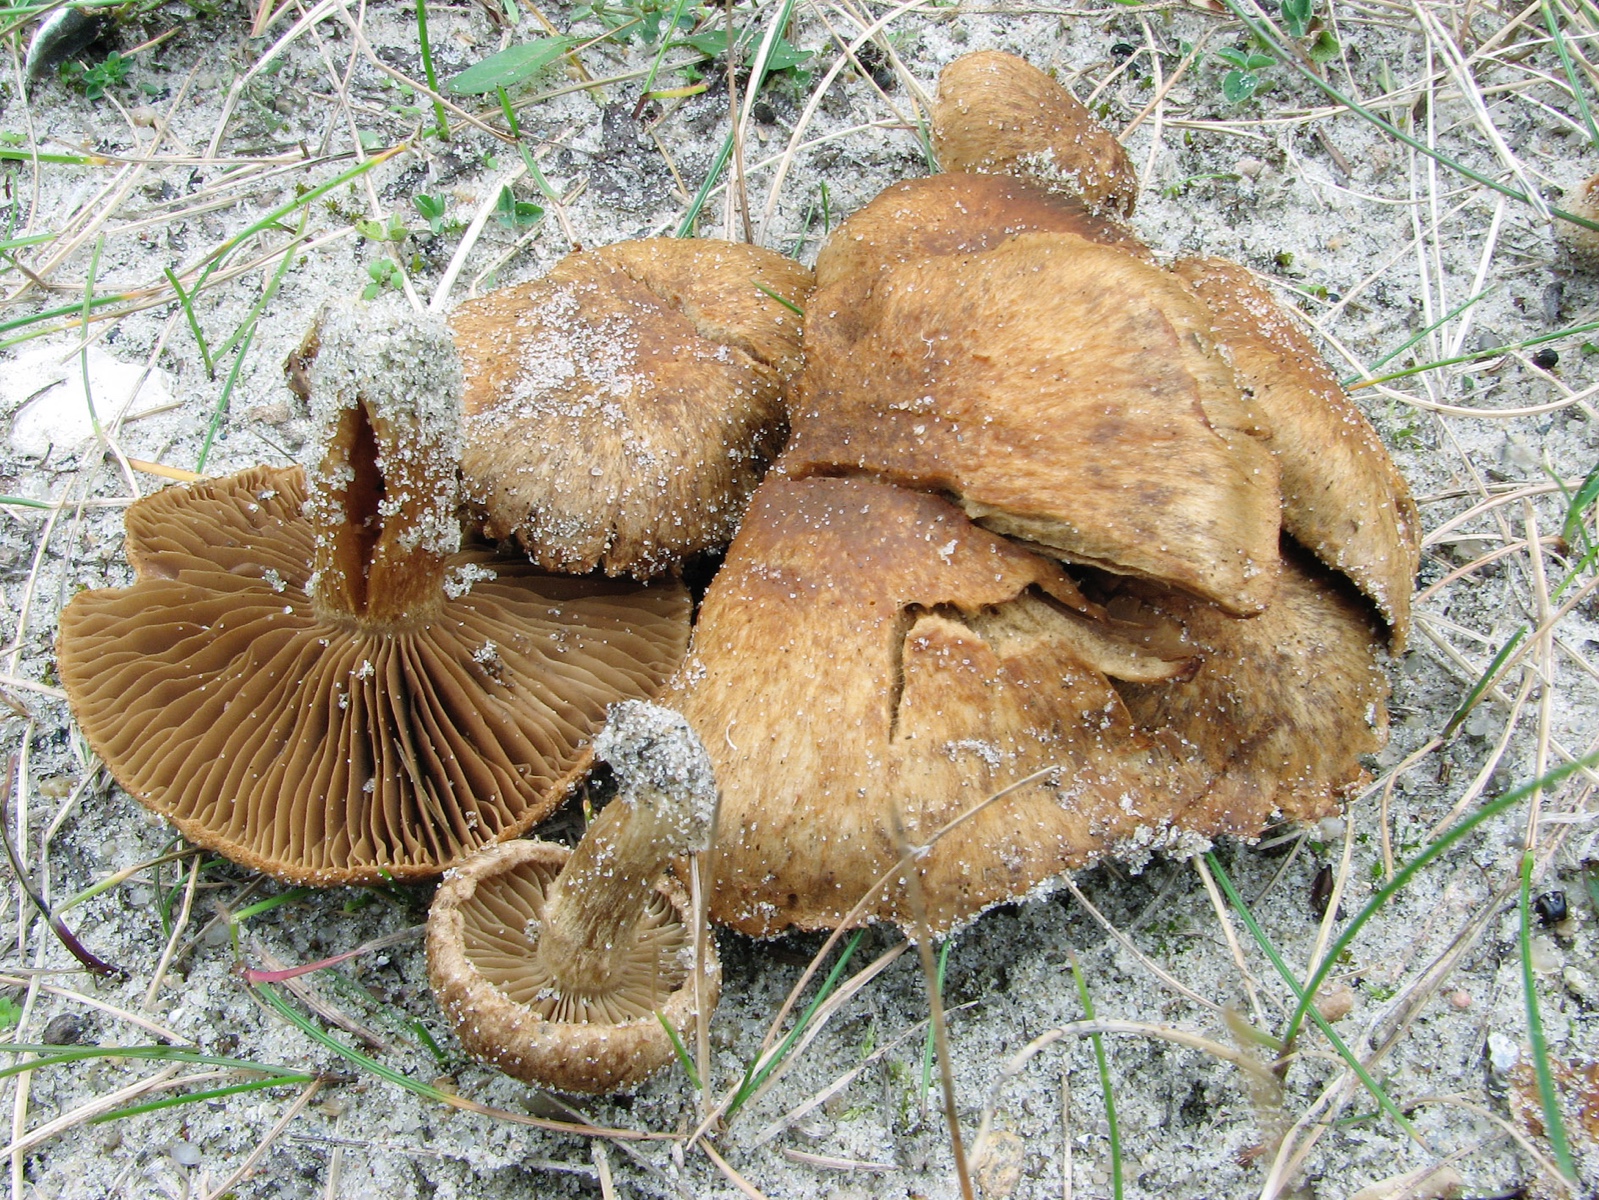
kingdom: Fungi
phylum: Basidiomycota
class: Agaricomycetes
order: Agaricales
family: Inocybaceae
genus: Mallocybe
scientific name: Mallocybe heimii
